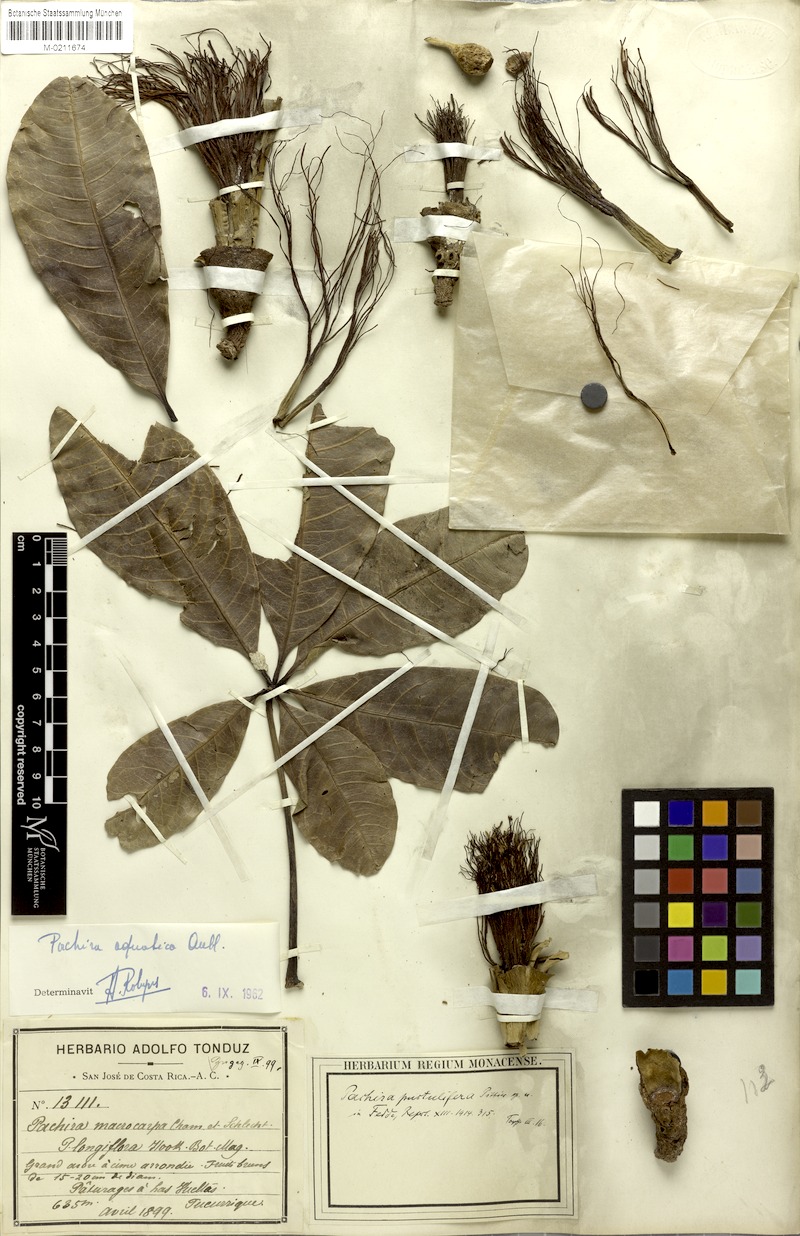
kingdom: Plantae
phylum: Tracheophyta
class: Magnoliopsida
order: Malvales
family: Malvaceae
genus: Pachira
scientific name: Pachira aquatica
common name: Provision-tree
